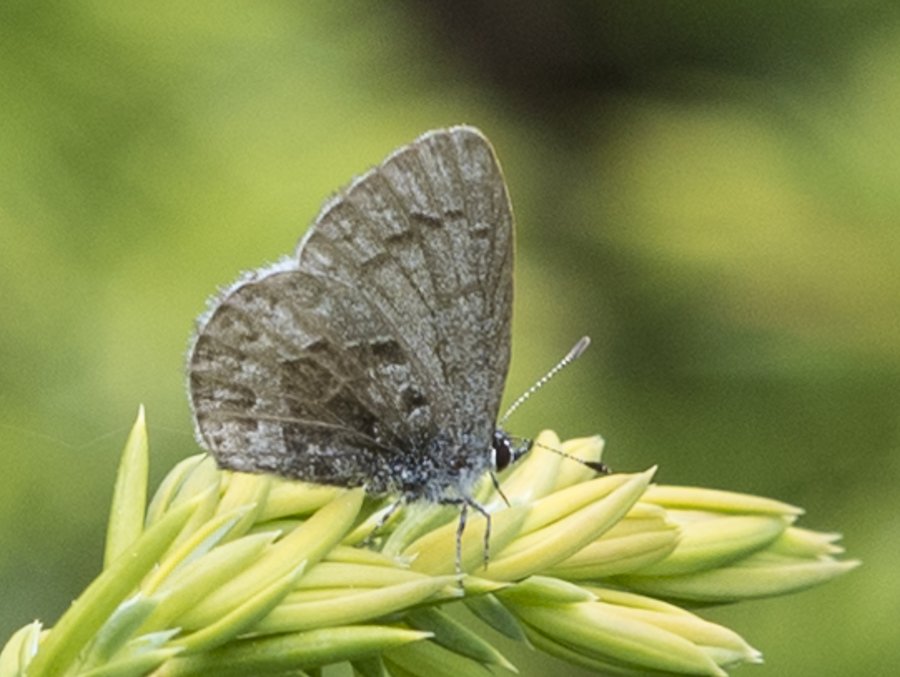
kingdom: Animalia
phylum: Arthropoda
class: Insecta
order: Lepidoptera
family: Lycaenidae
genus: Celastrina
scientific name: Celastrina lucia
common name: Northern Spring Azure
